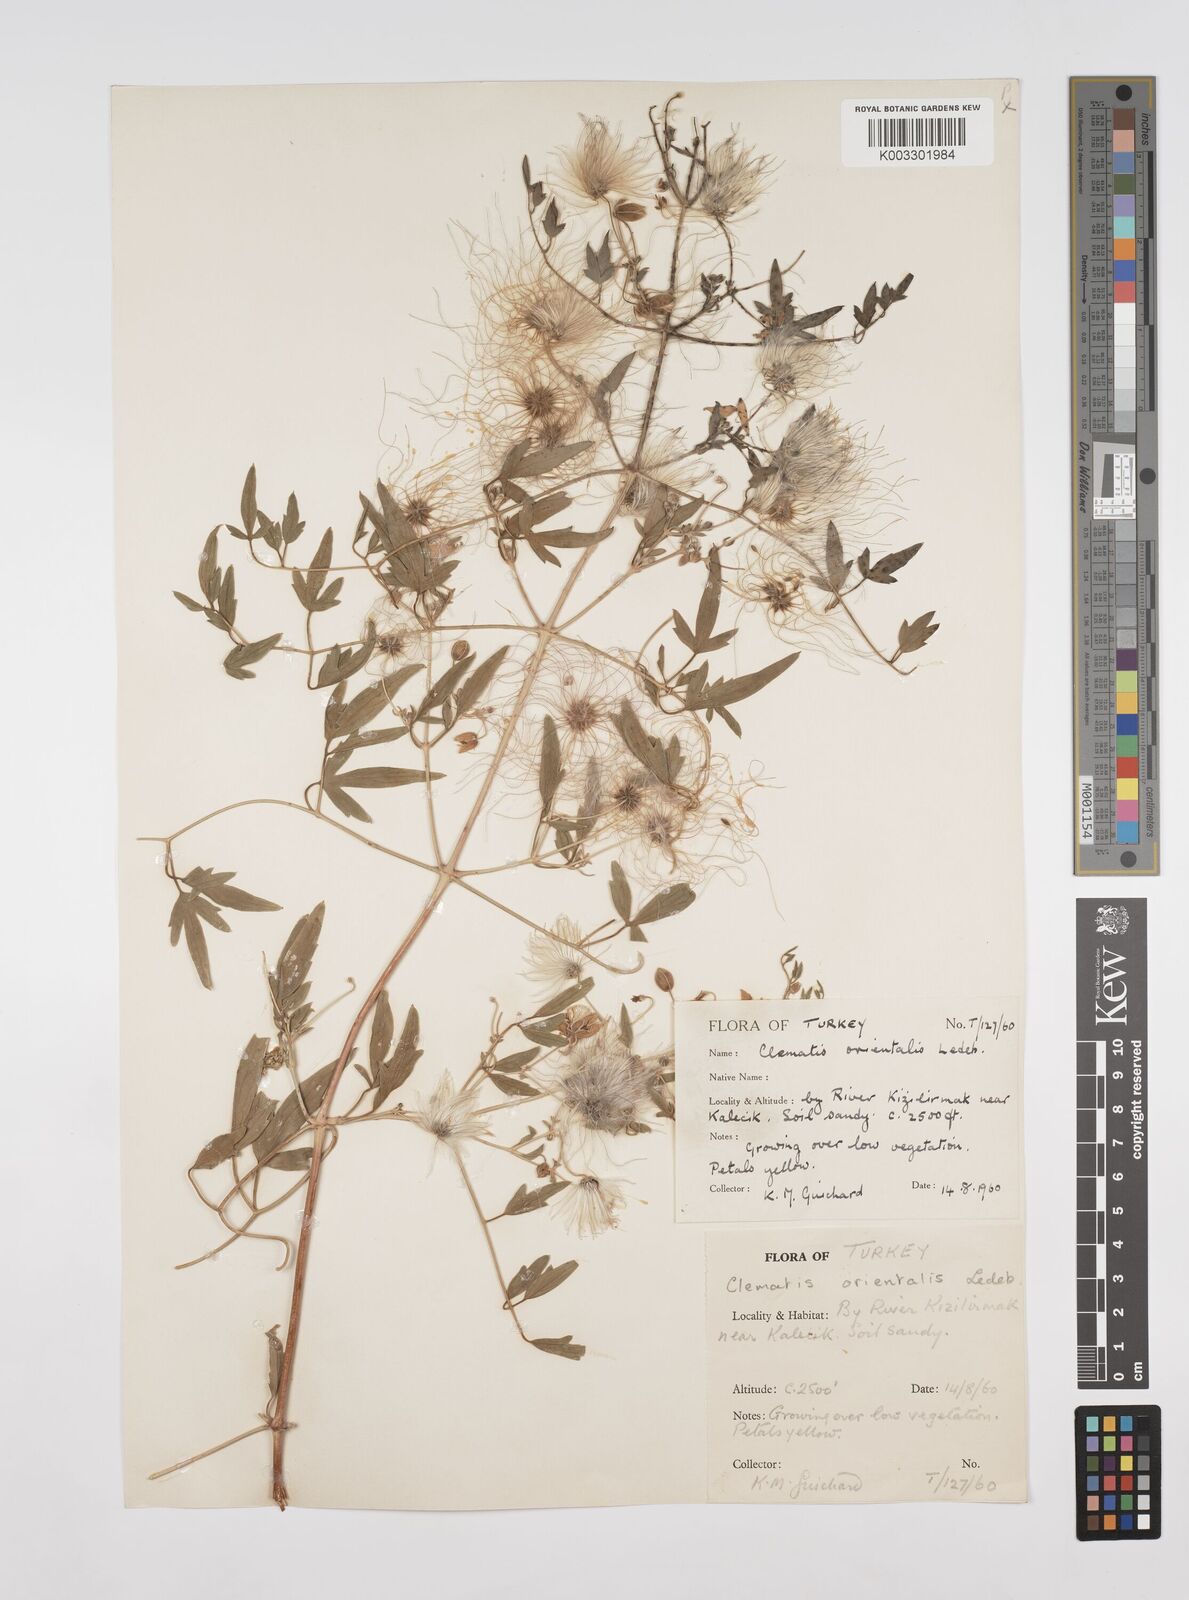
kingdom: Plantae
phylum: Tracheophyta
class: Magnoliopsida
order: Ranunculales
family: Ranunculaceae
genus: Clematis
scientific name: Clematis orientalis
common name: Oriental virgin's-bower
